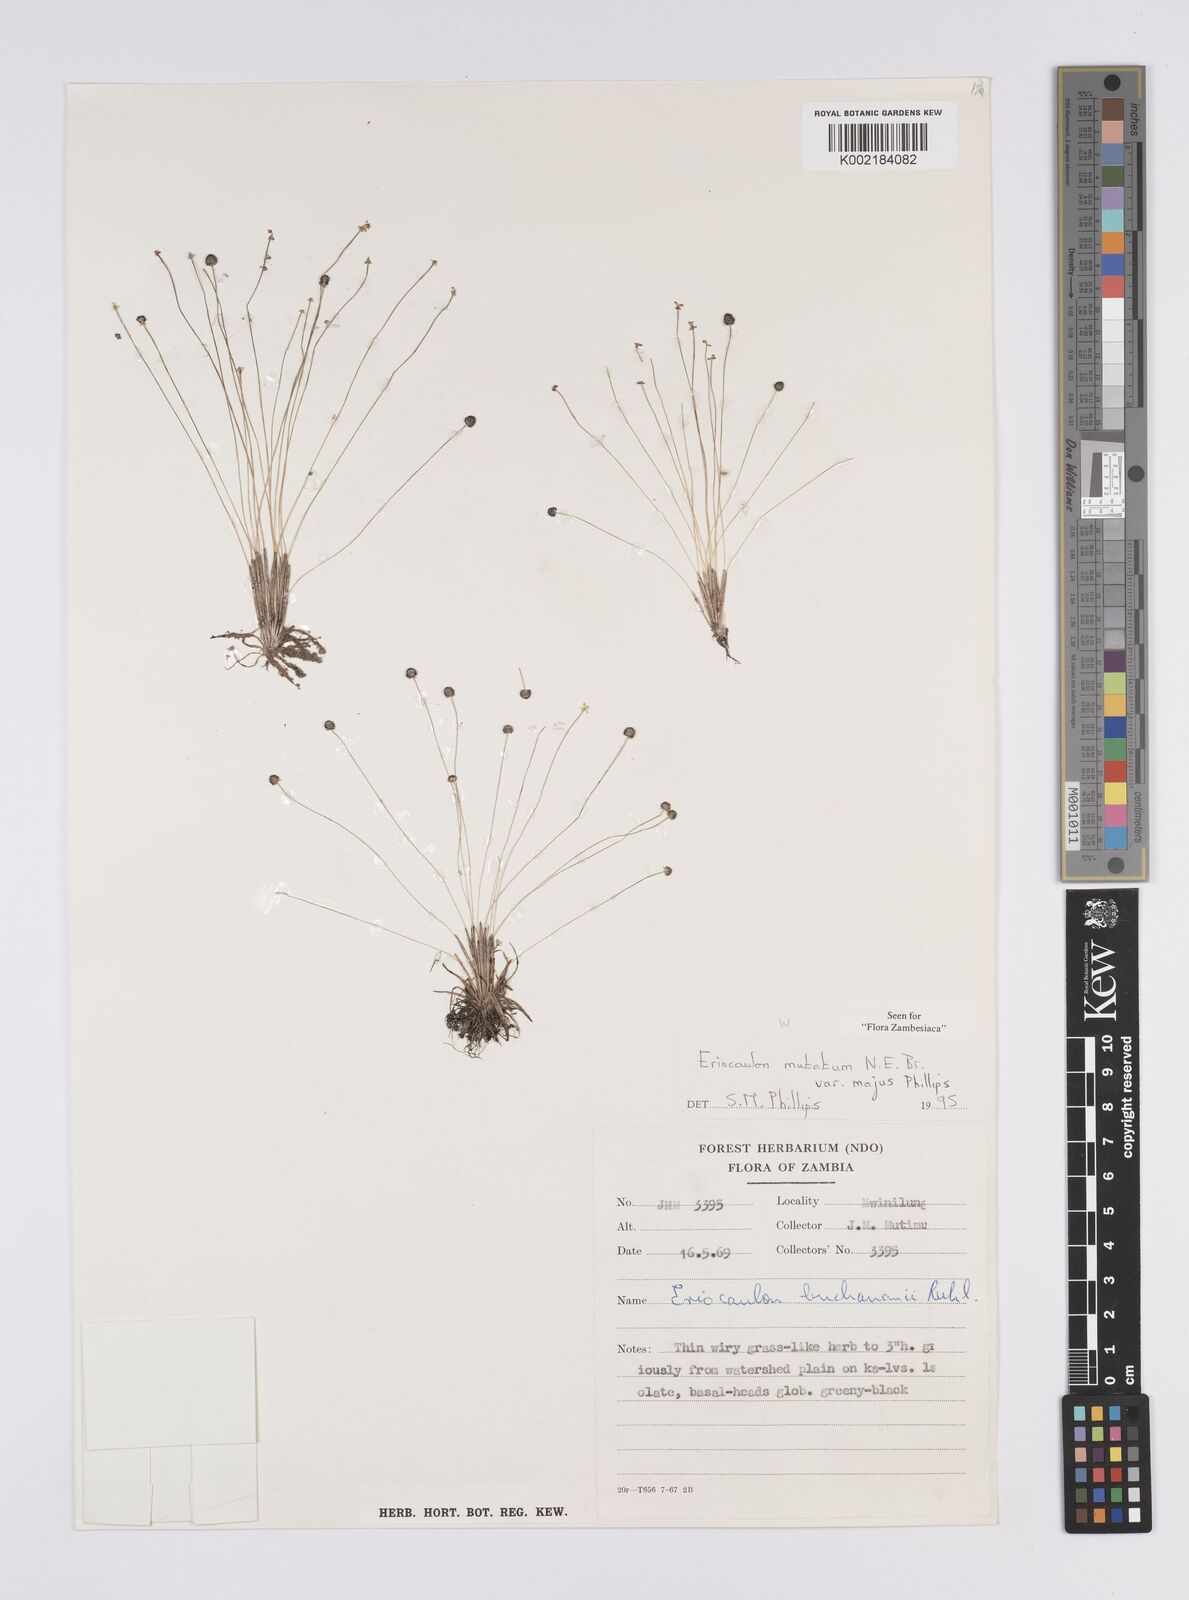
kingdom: Plantae
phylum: Tracheophyta
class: Liliopsida
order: Poales
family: Eriocaulaceae
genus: Eriocaulon
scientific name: Eriocaulon mutatum
